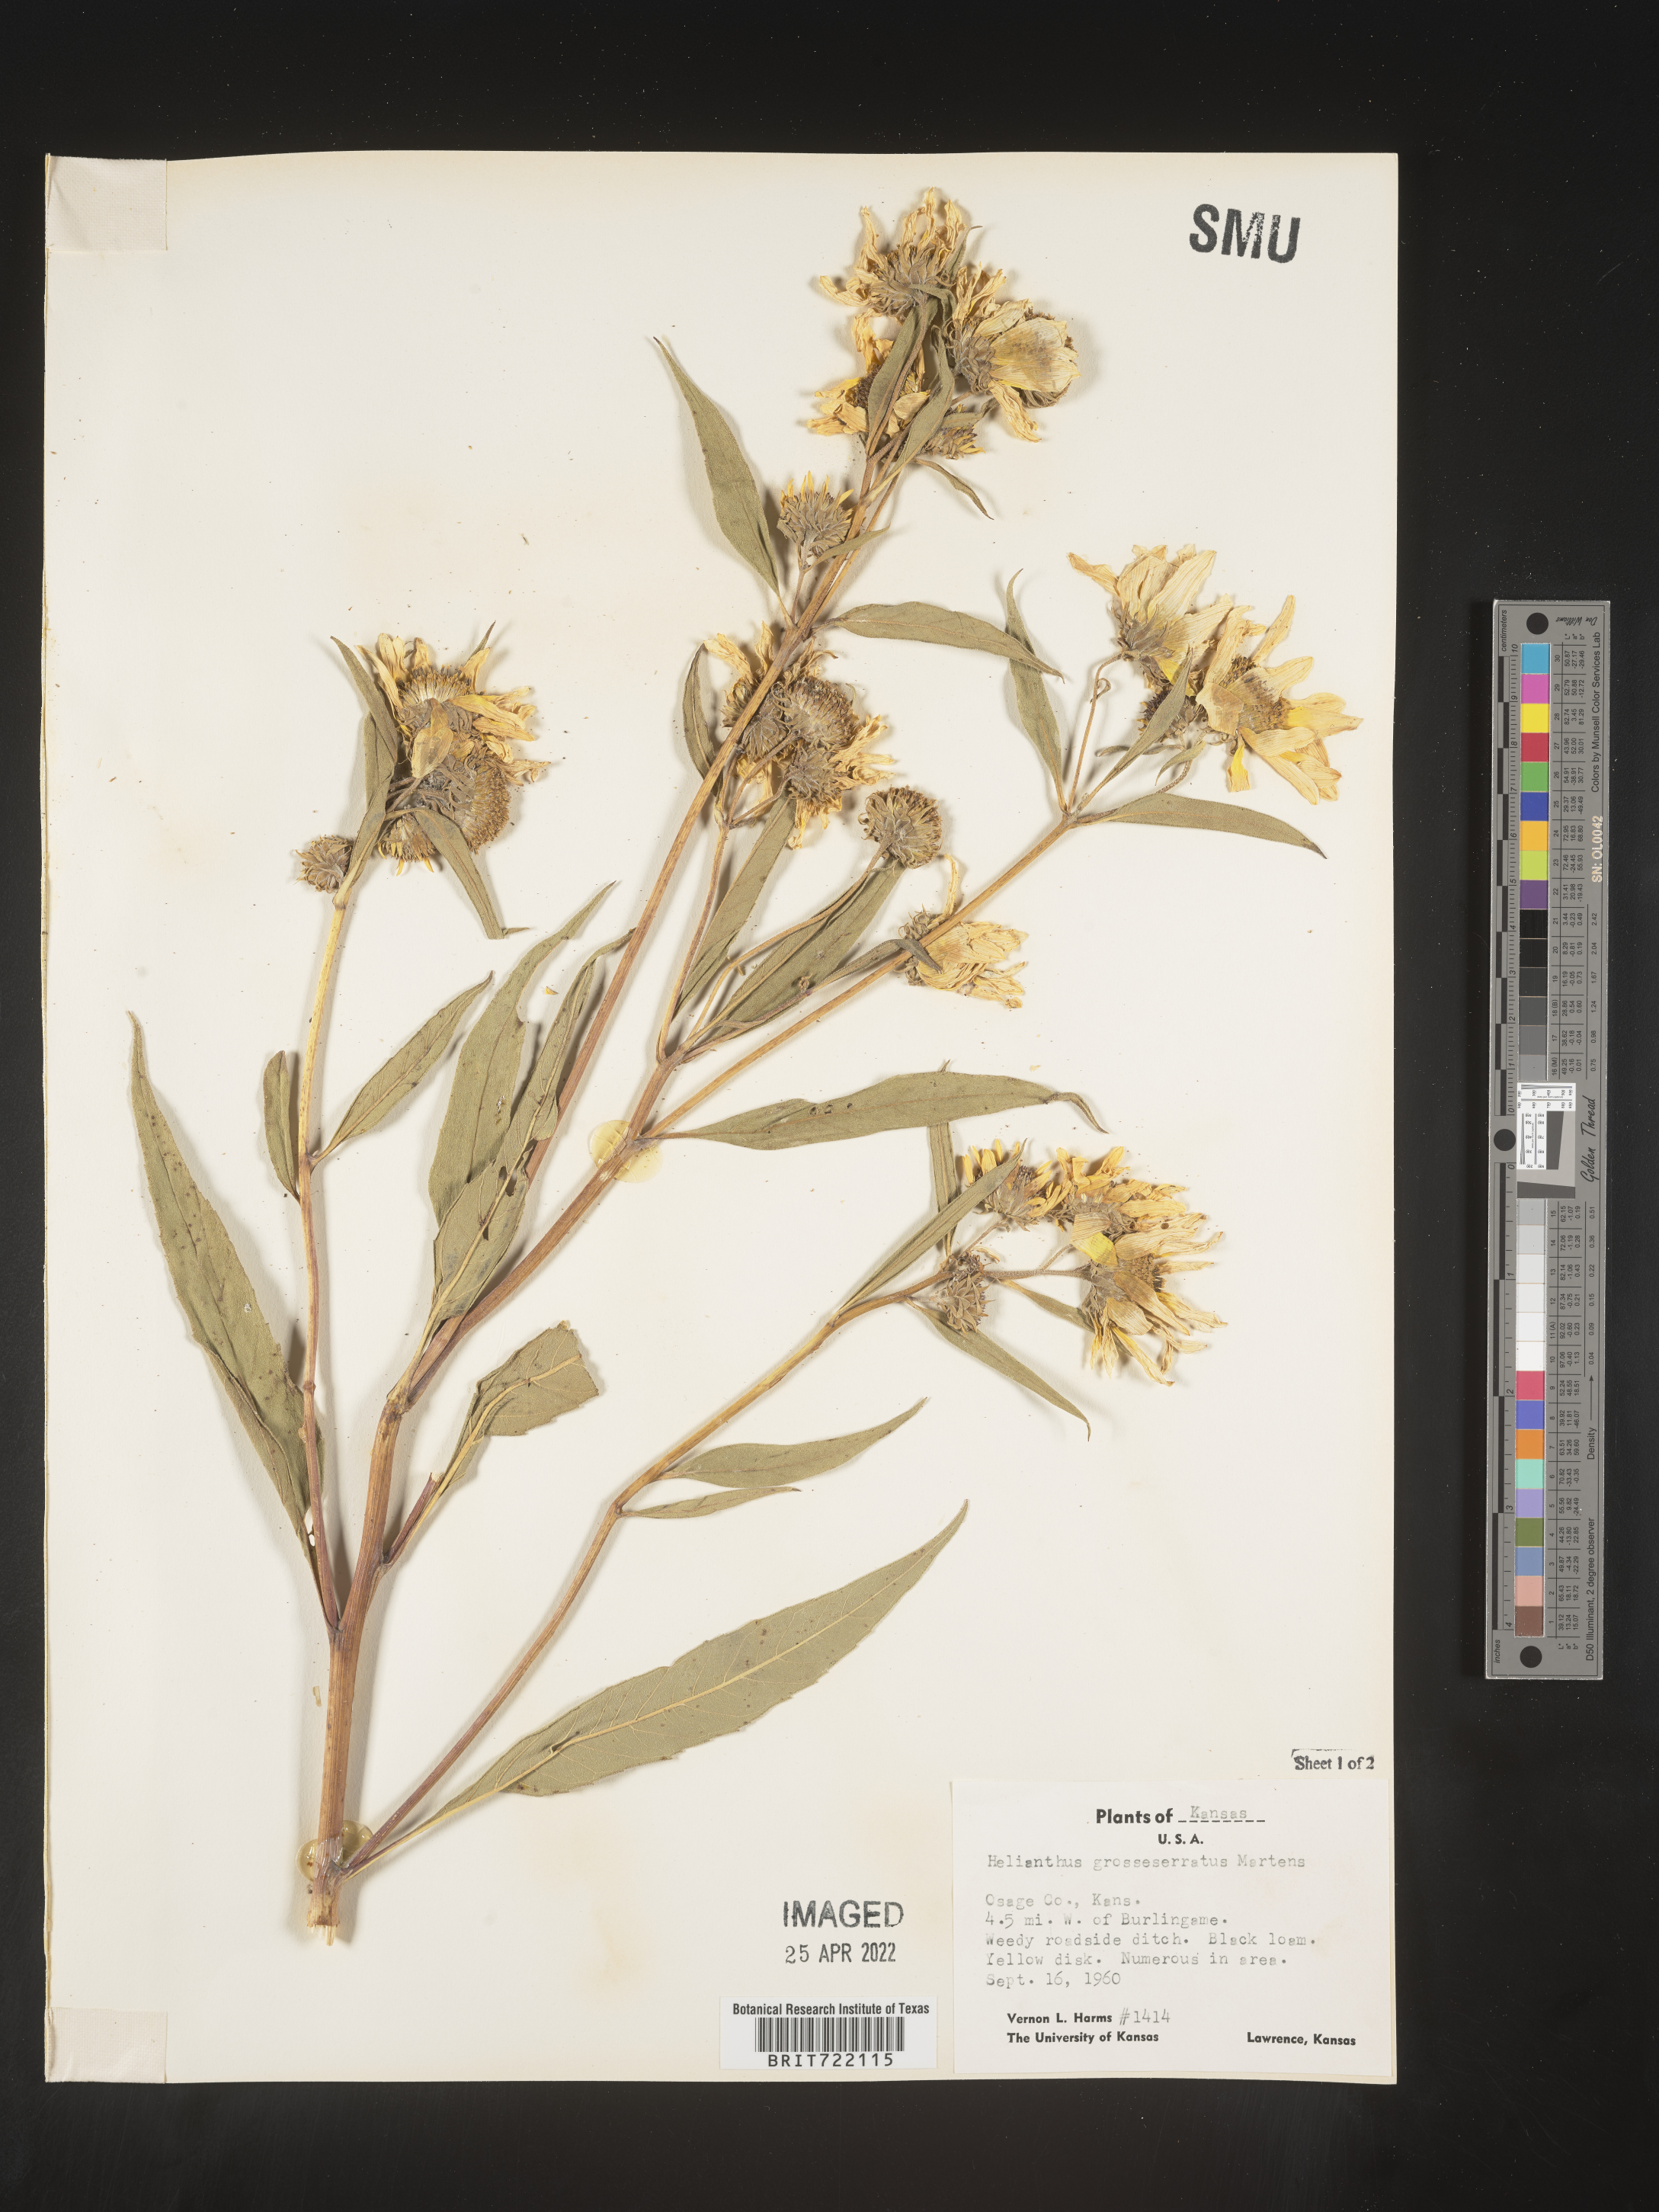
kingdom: Plantae
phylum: Tracheophyta
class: Magnoliopsida
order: Asterales
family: Asteraceae
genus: Helianthus
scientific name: Helianthus grosseserratus
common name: Sawtooth sunflower
